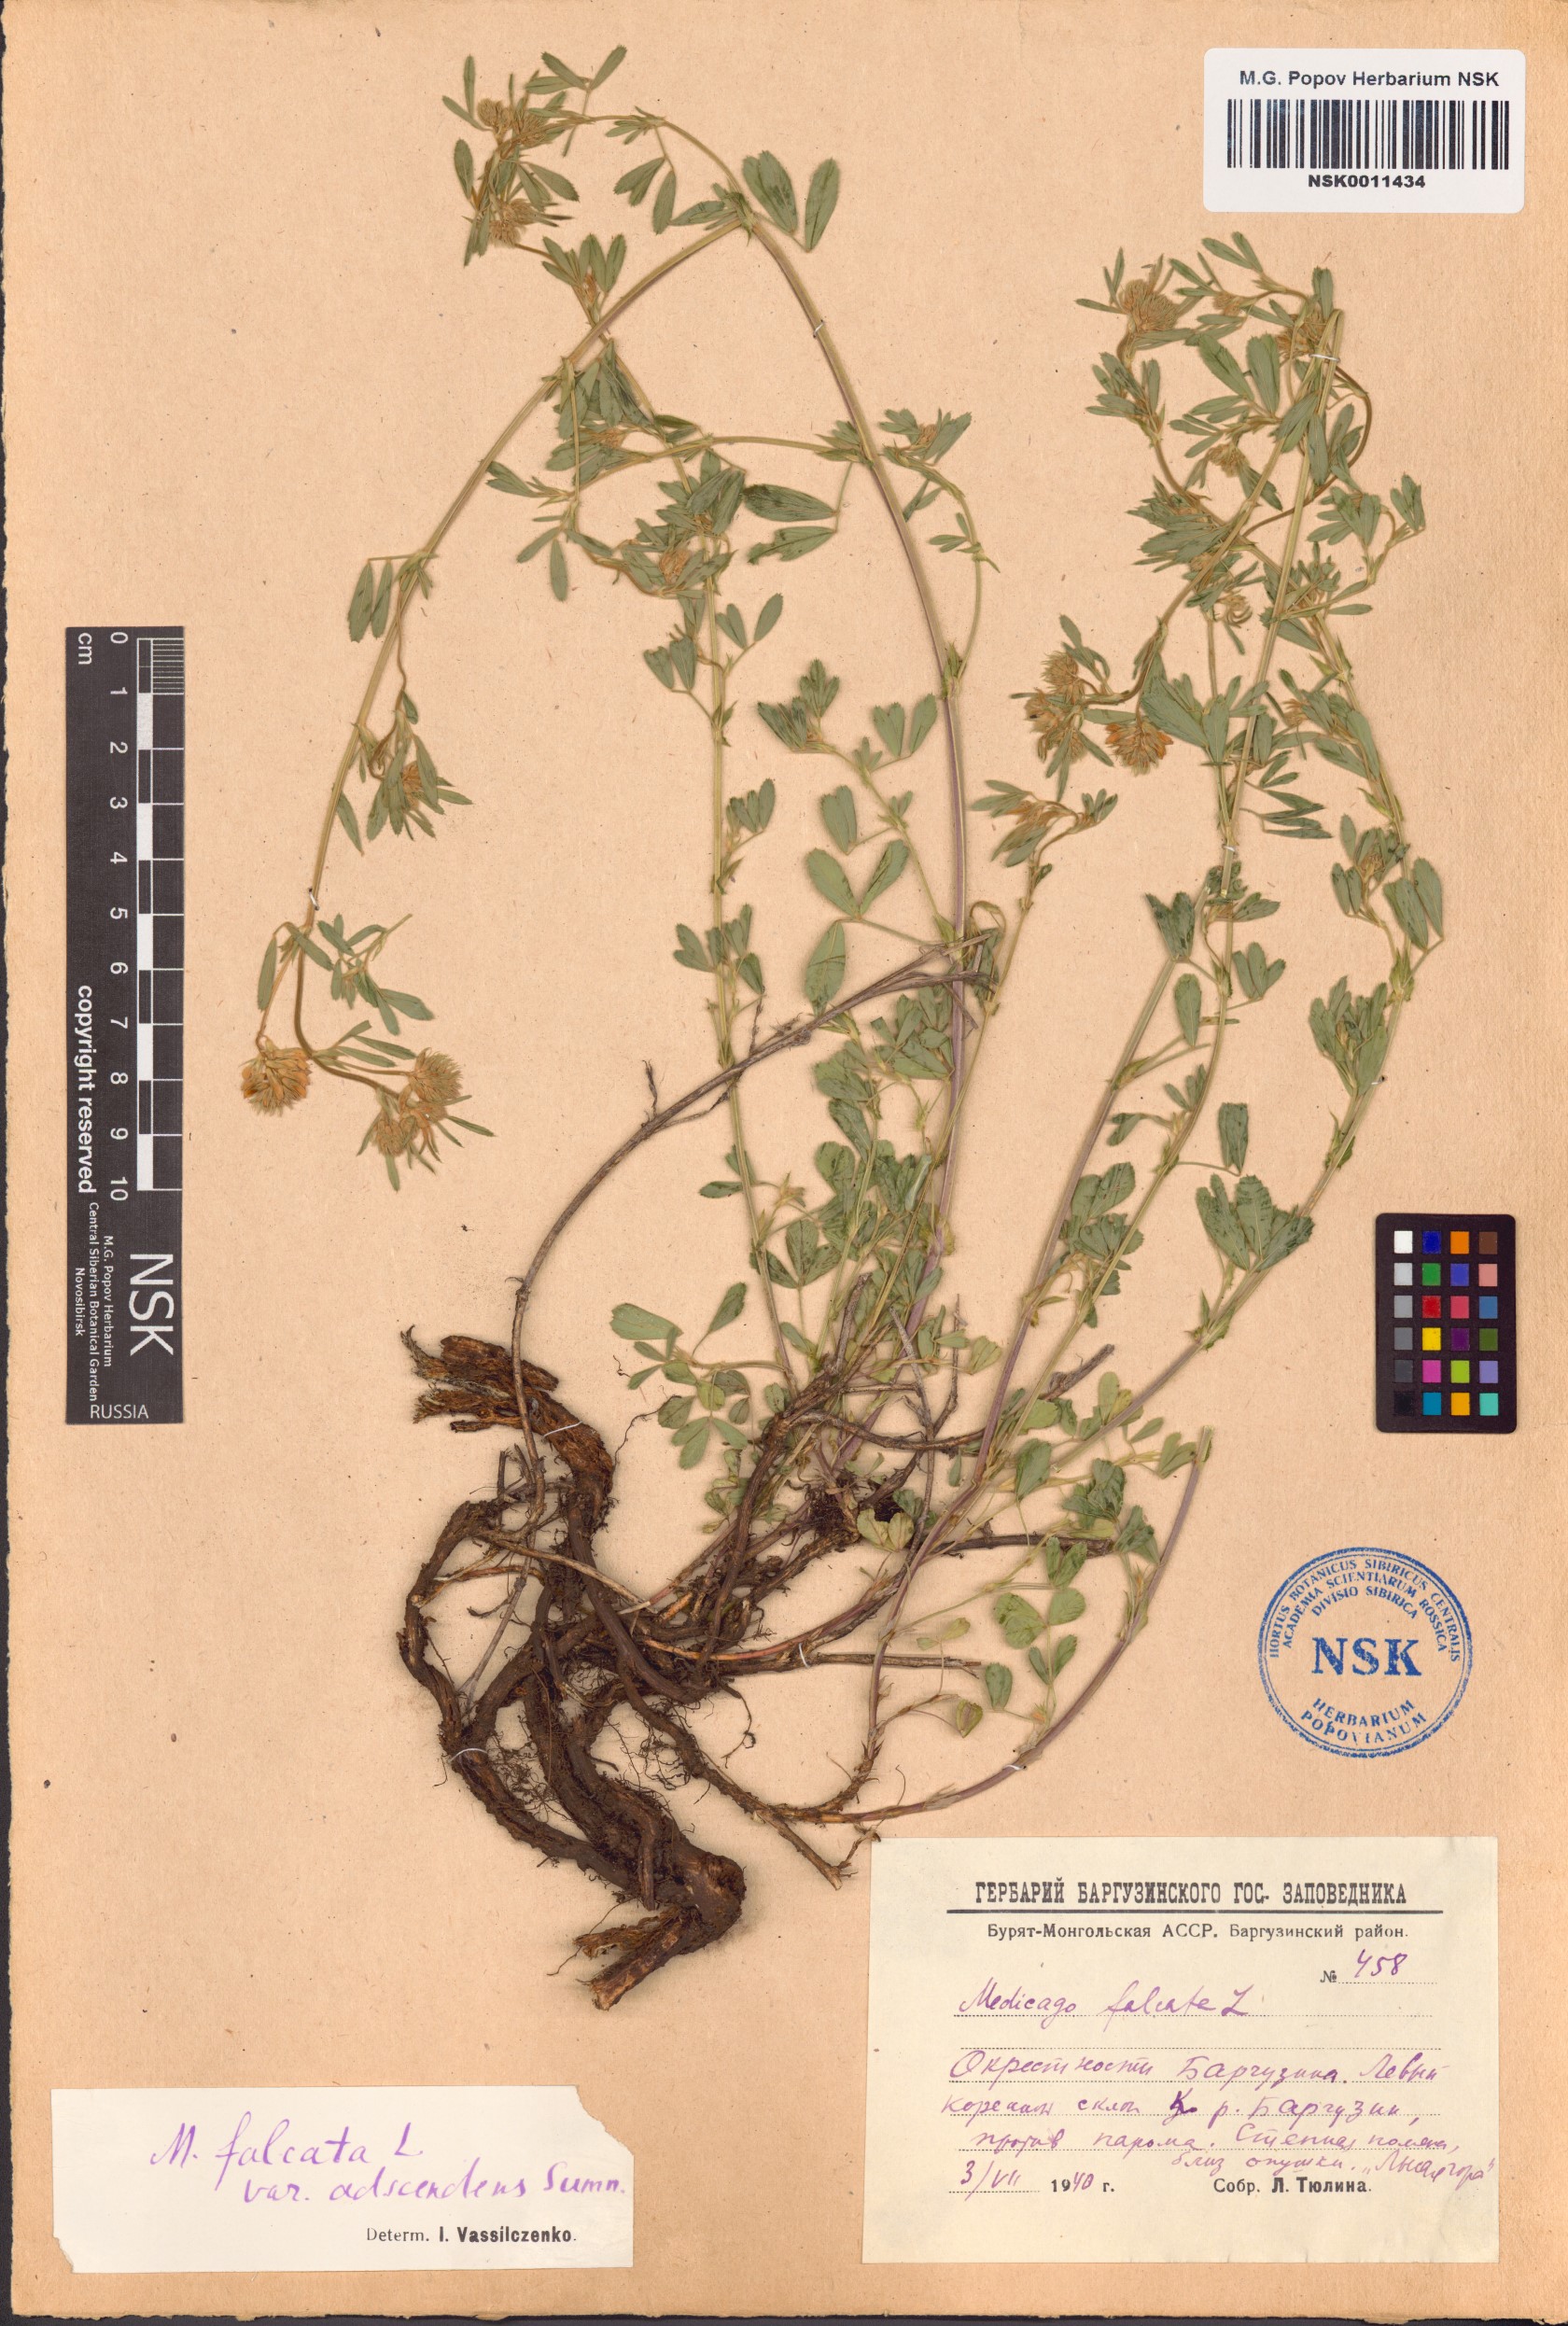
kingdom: Plantae
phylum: Tracheophyta
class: Magnoliopsida
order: Fabales
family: Fabaceae
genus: Medicago
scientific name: Medicago falcata
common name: Sickle medick
